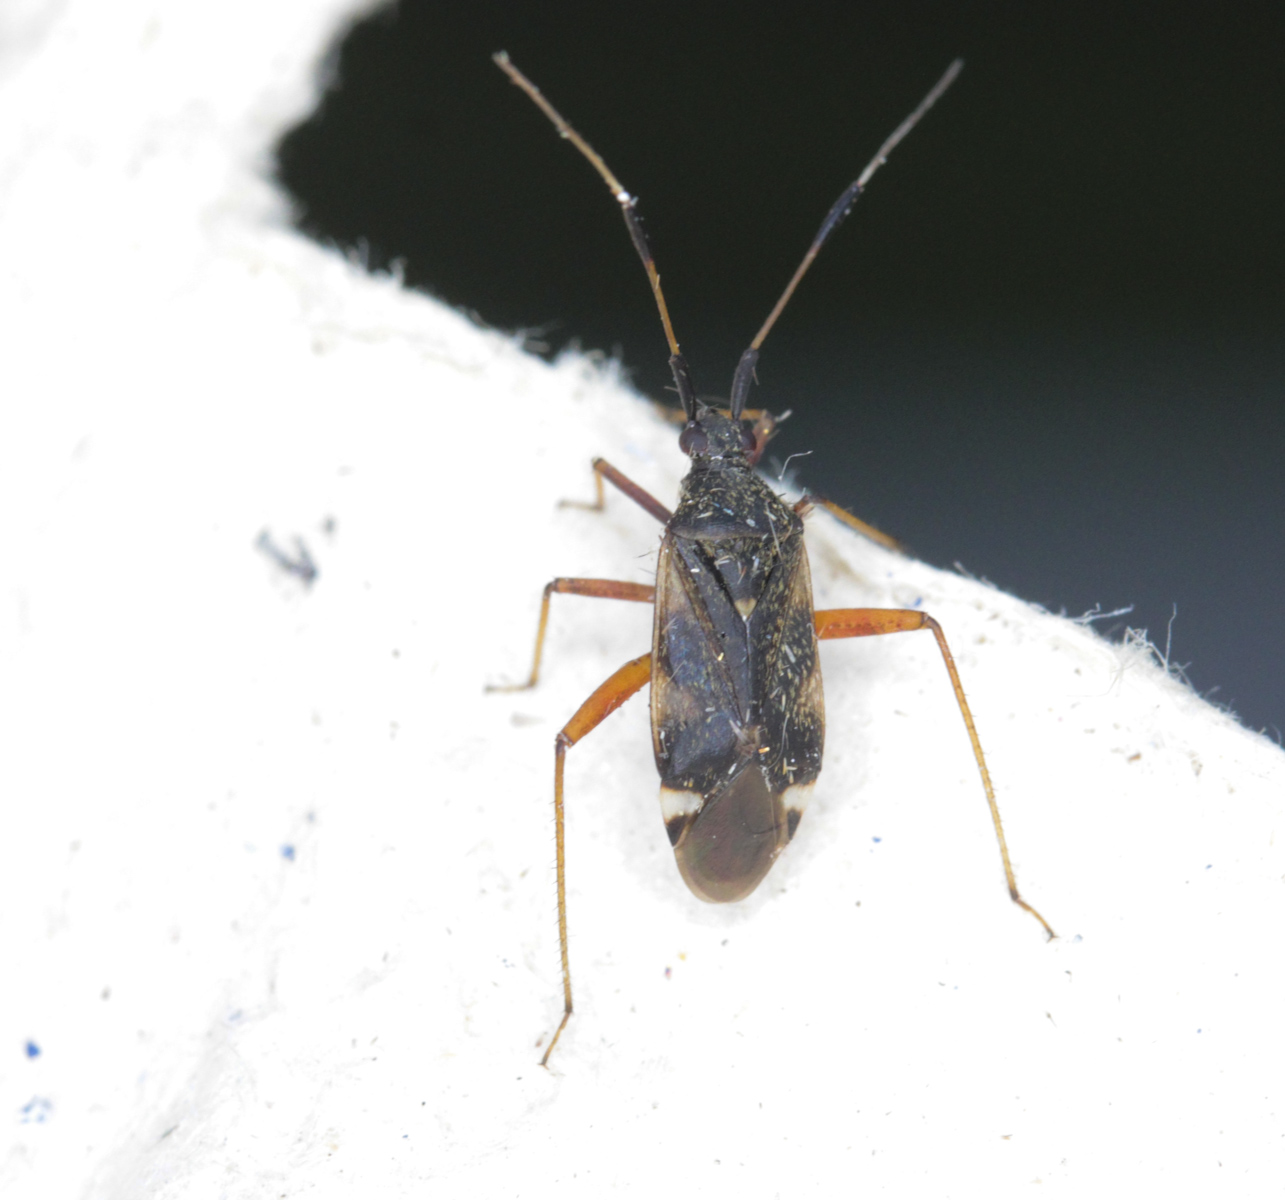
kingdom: Animalia
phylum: Arthropoda
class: Insecta
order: Hemiptera
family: Miridae
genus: Closterotomus
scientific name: Closterotomus biclavatus
